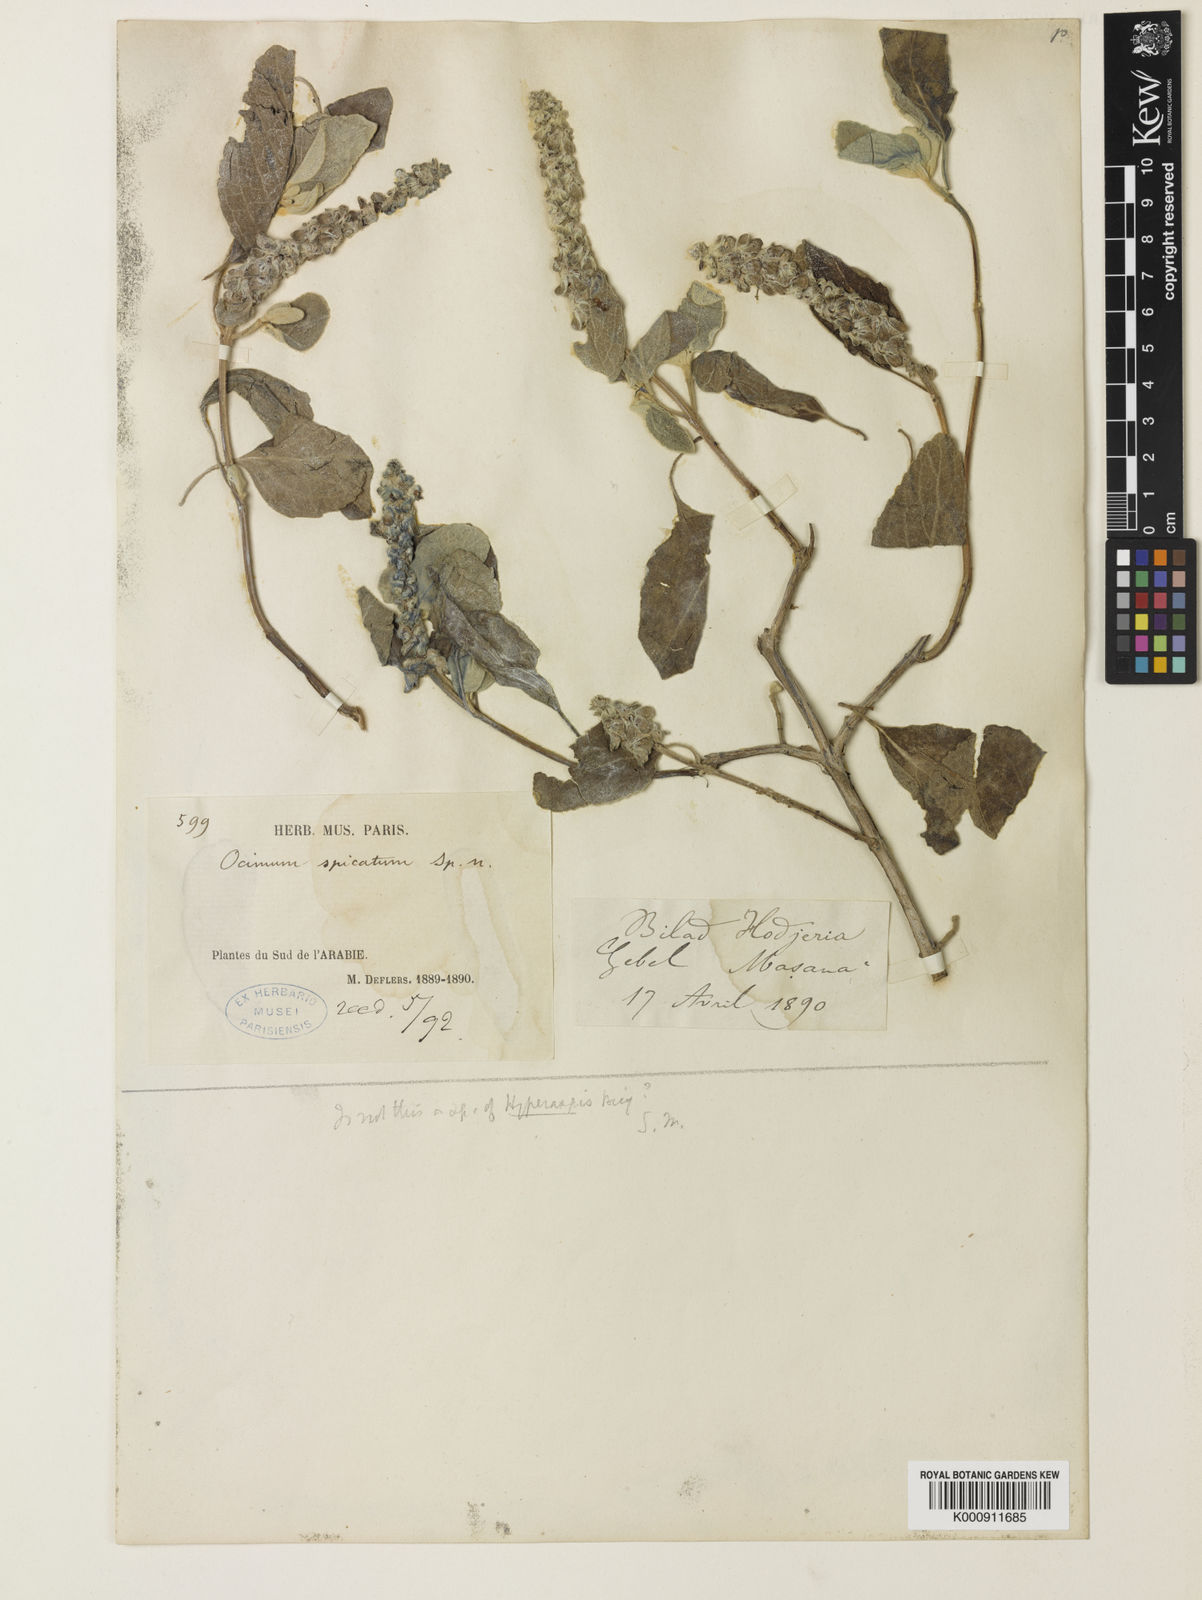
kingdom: Plantae
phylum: Tracheophyta
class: Magnoliopsida
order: Lamiales
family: Lamiaceae
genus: Ocimum
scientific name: Ocimum spicatum
